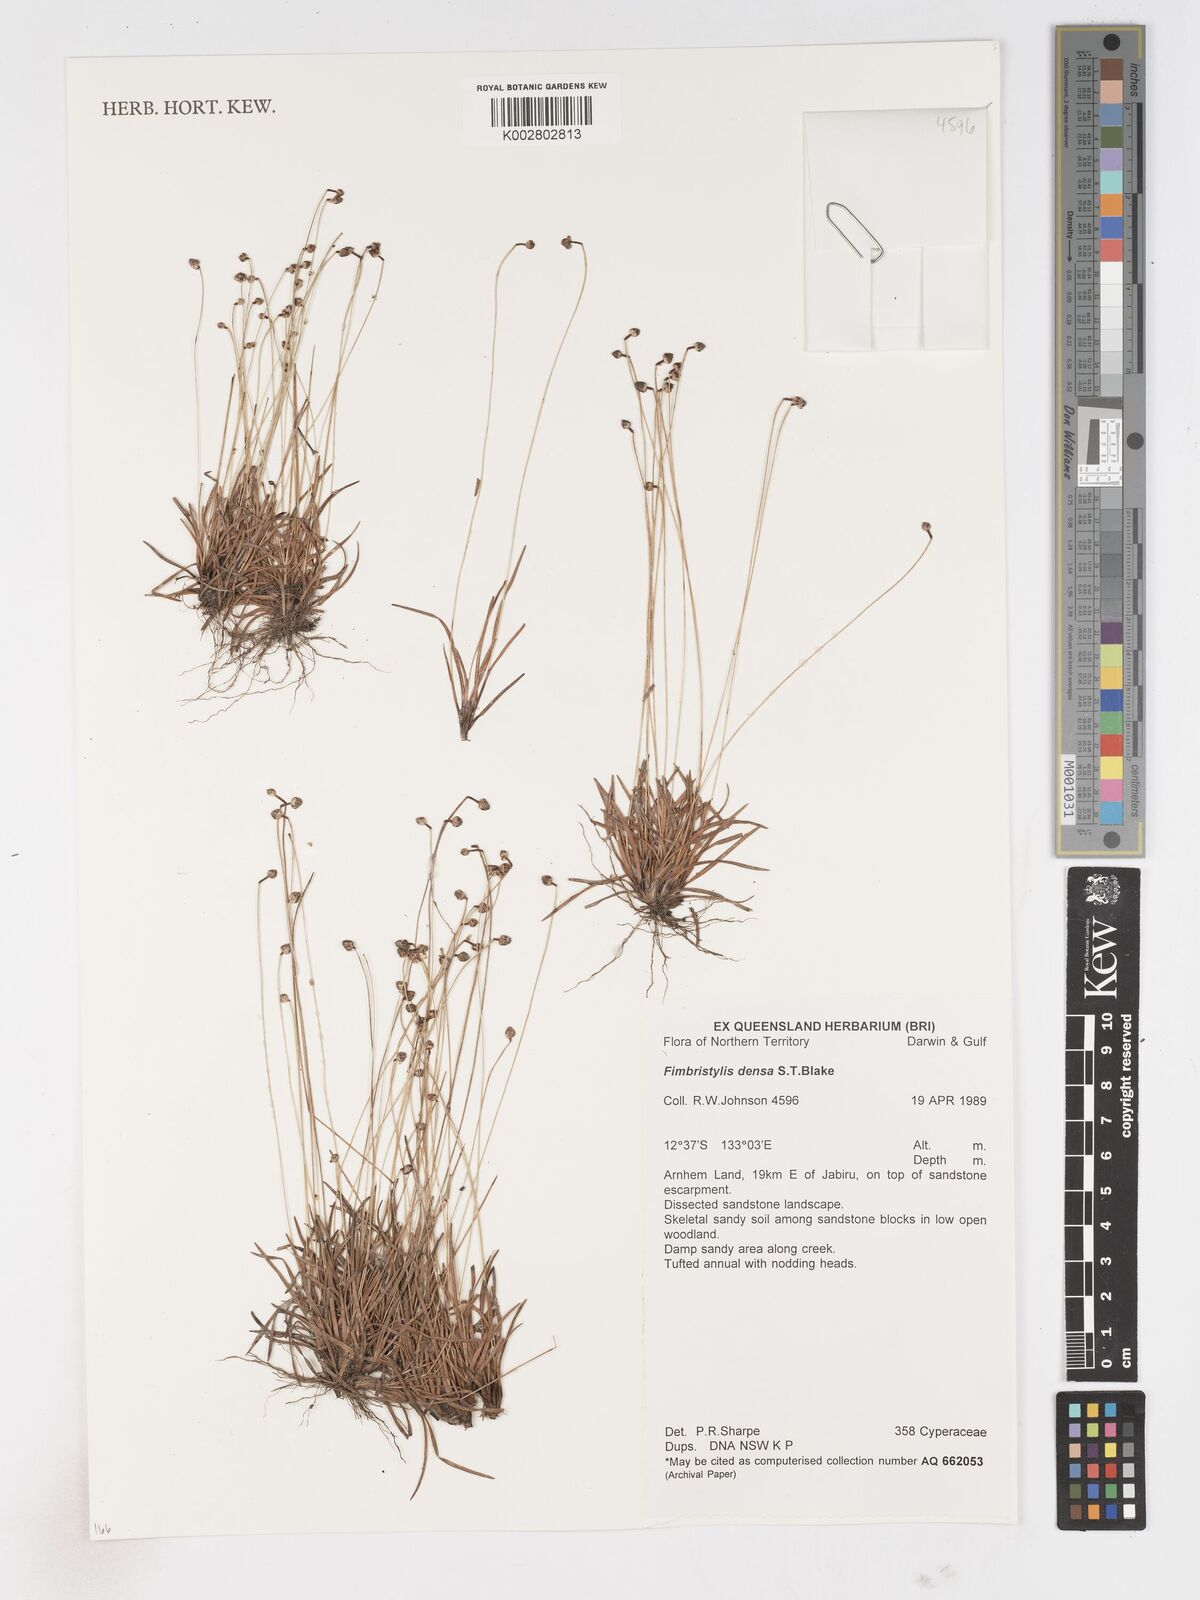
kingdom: Plantae
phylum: Tracheophyta
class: Liliopsida
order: Poales
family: Cyperaceae
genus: Fimbristylis
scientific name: Fimbristylis densa
